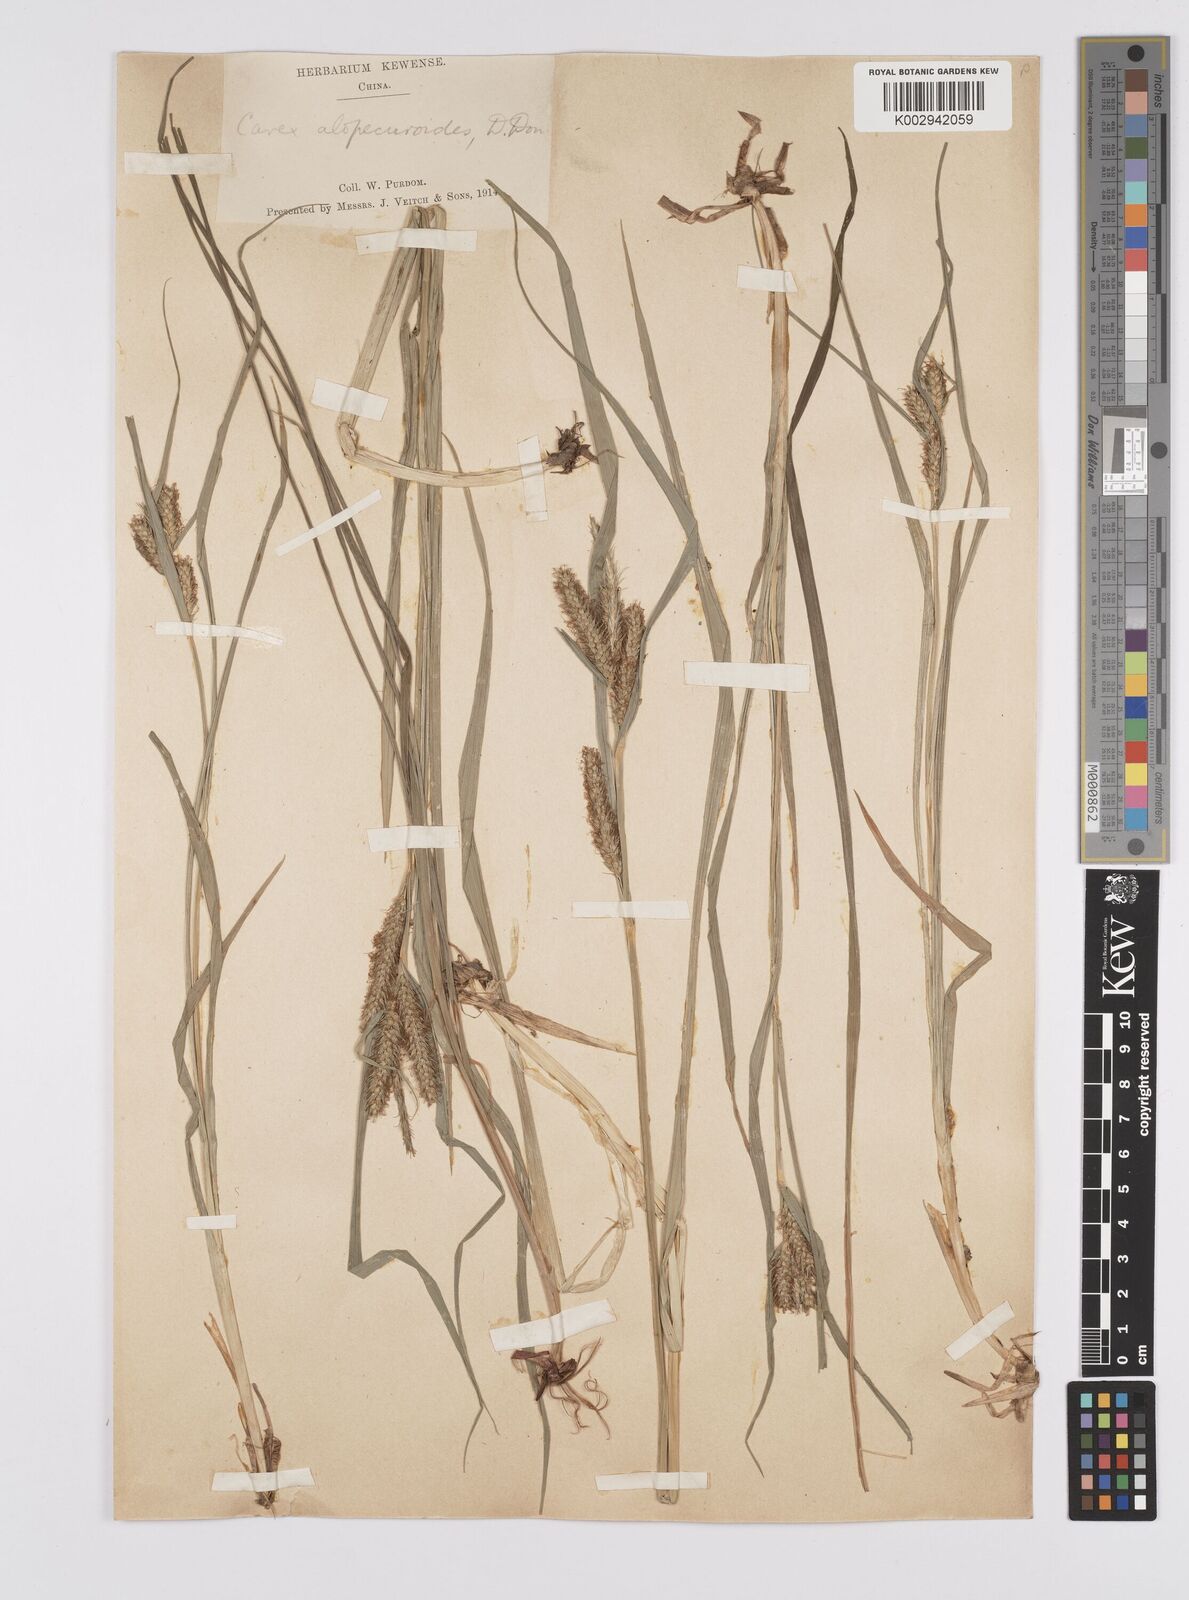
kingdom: Plantae
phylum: Tracheophyta
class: Liliopsida
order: Poales
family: Cyperaceae
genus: Carex
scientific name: Carex japonica
